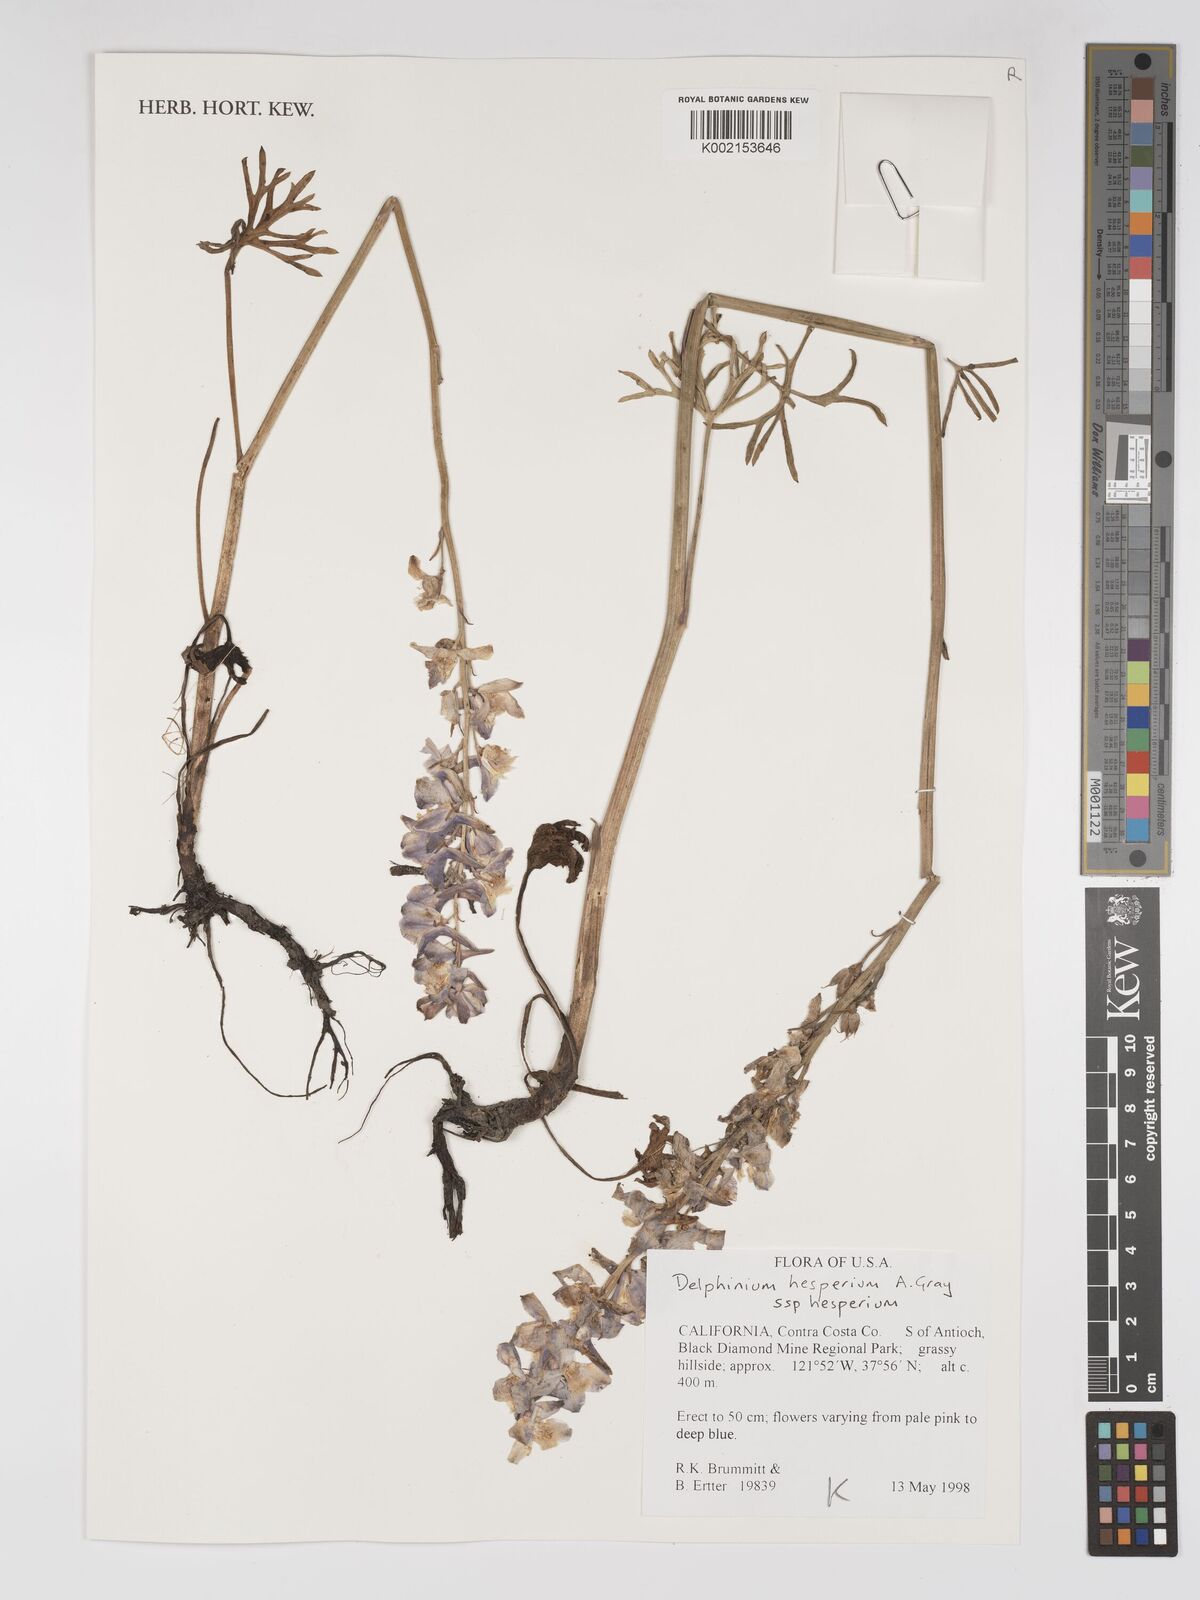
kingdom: Plantae
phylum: Tracheophyta
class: Magnoliopsida
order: Ranunculales
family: Ranunculaceae
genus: Delphinium
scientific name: Delphinium hesperium
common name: Western larkspur
